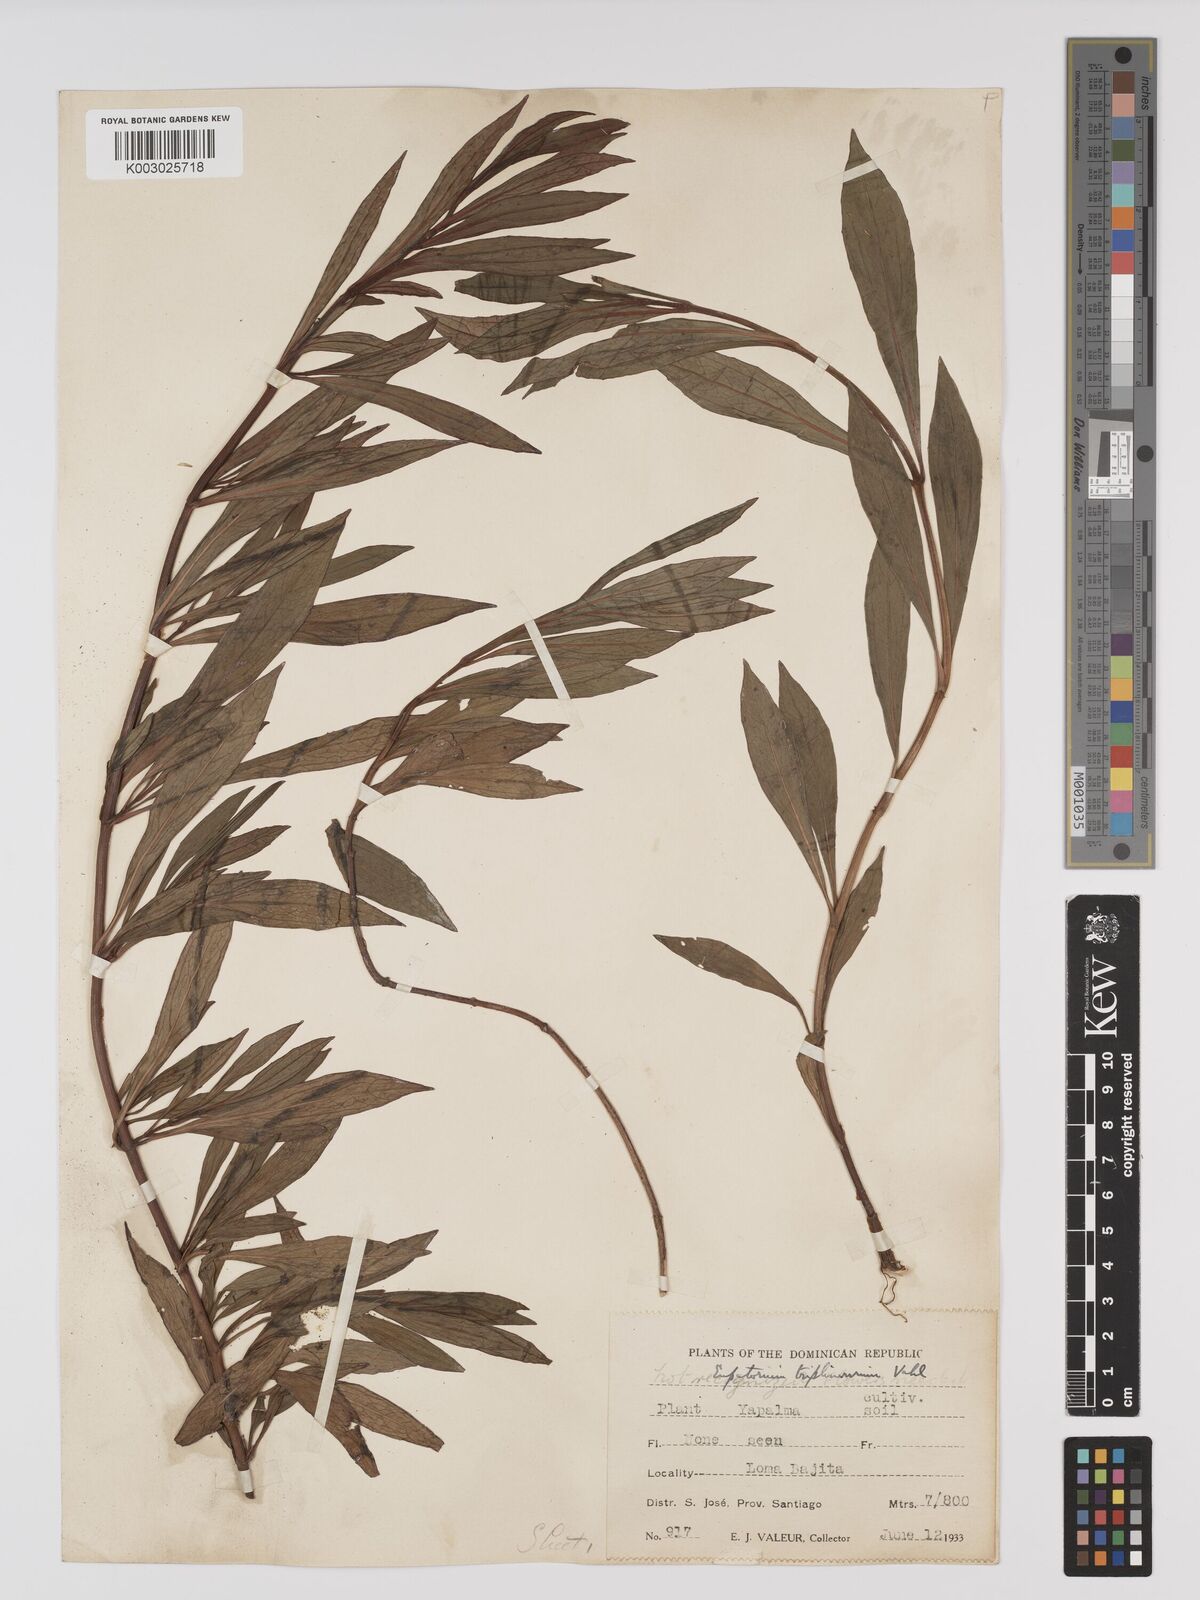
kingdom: Plantae
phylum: Tracheophyta
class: Magnoliopsida
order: Asterales
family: Asteraceae
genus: Ayapana
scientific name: Ayapana triplinervis
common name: Triplinerved eupatorium
